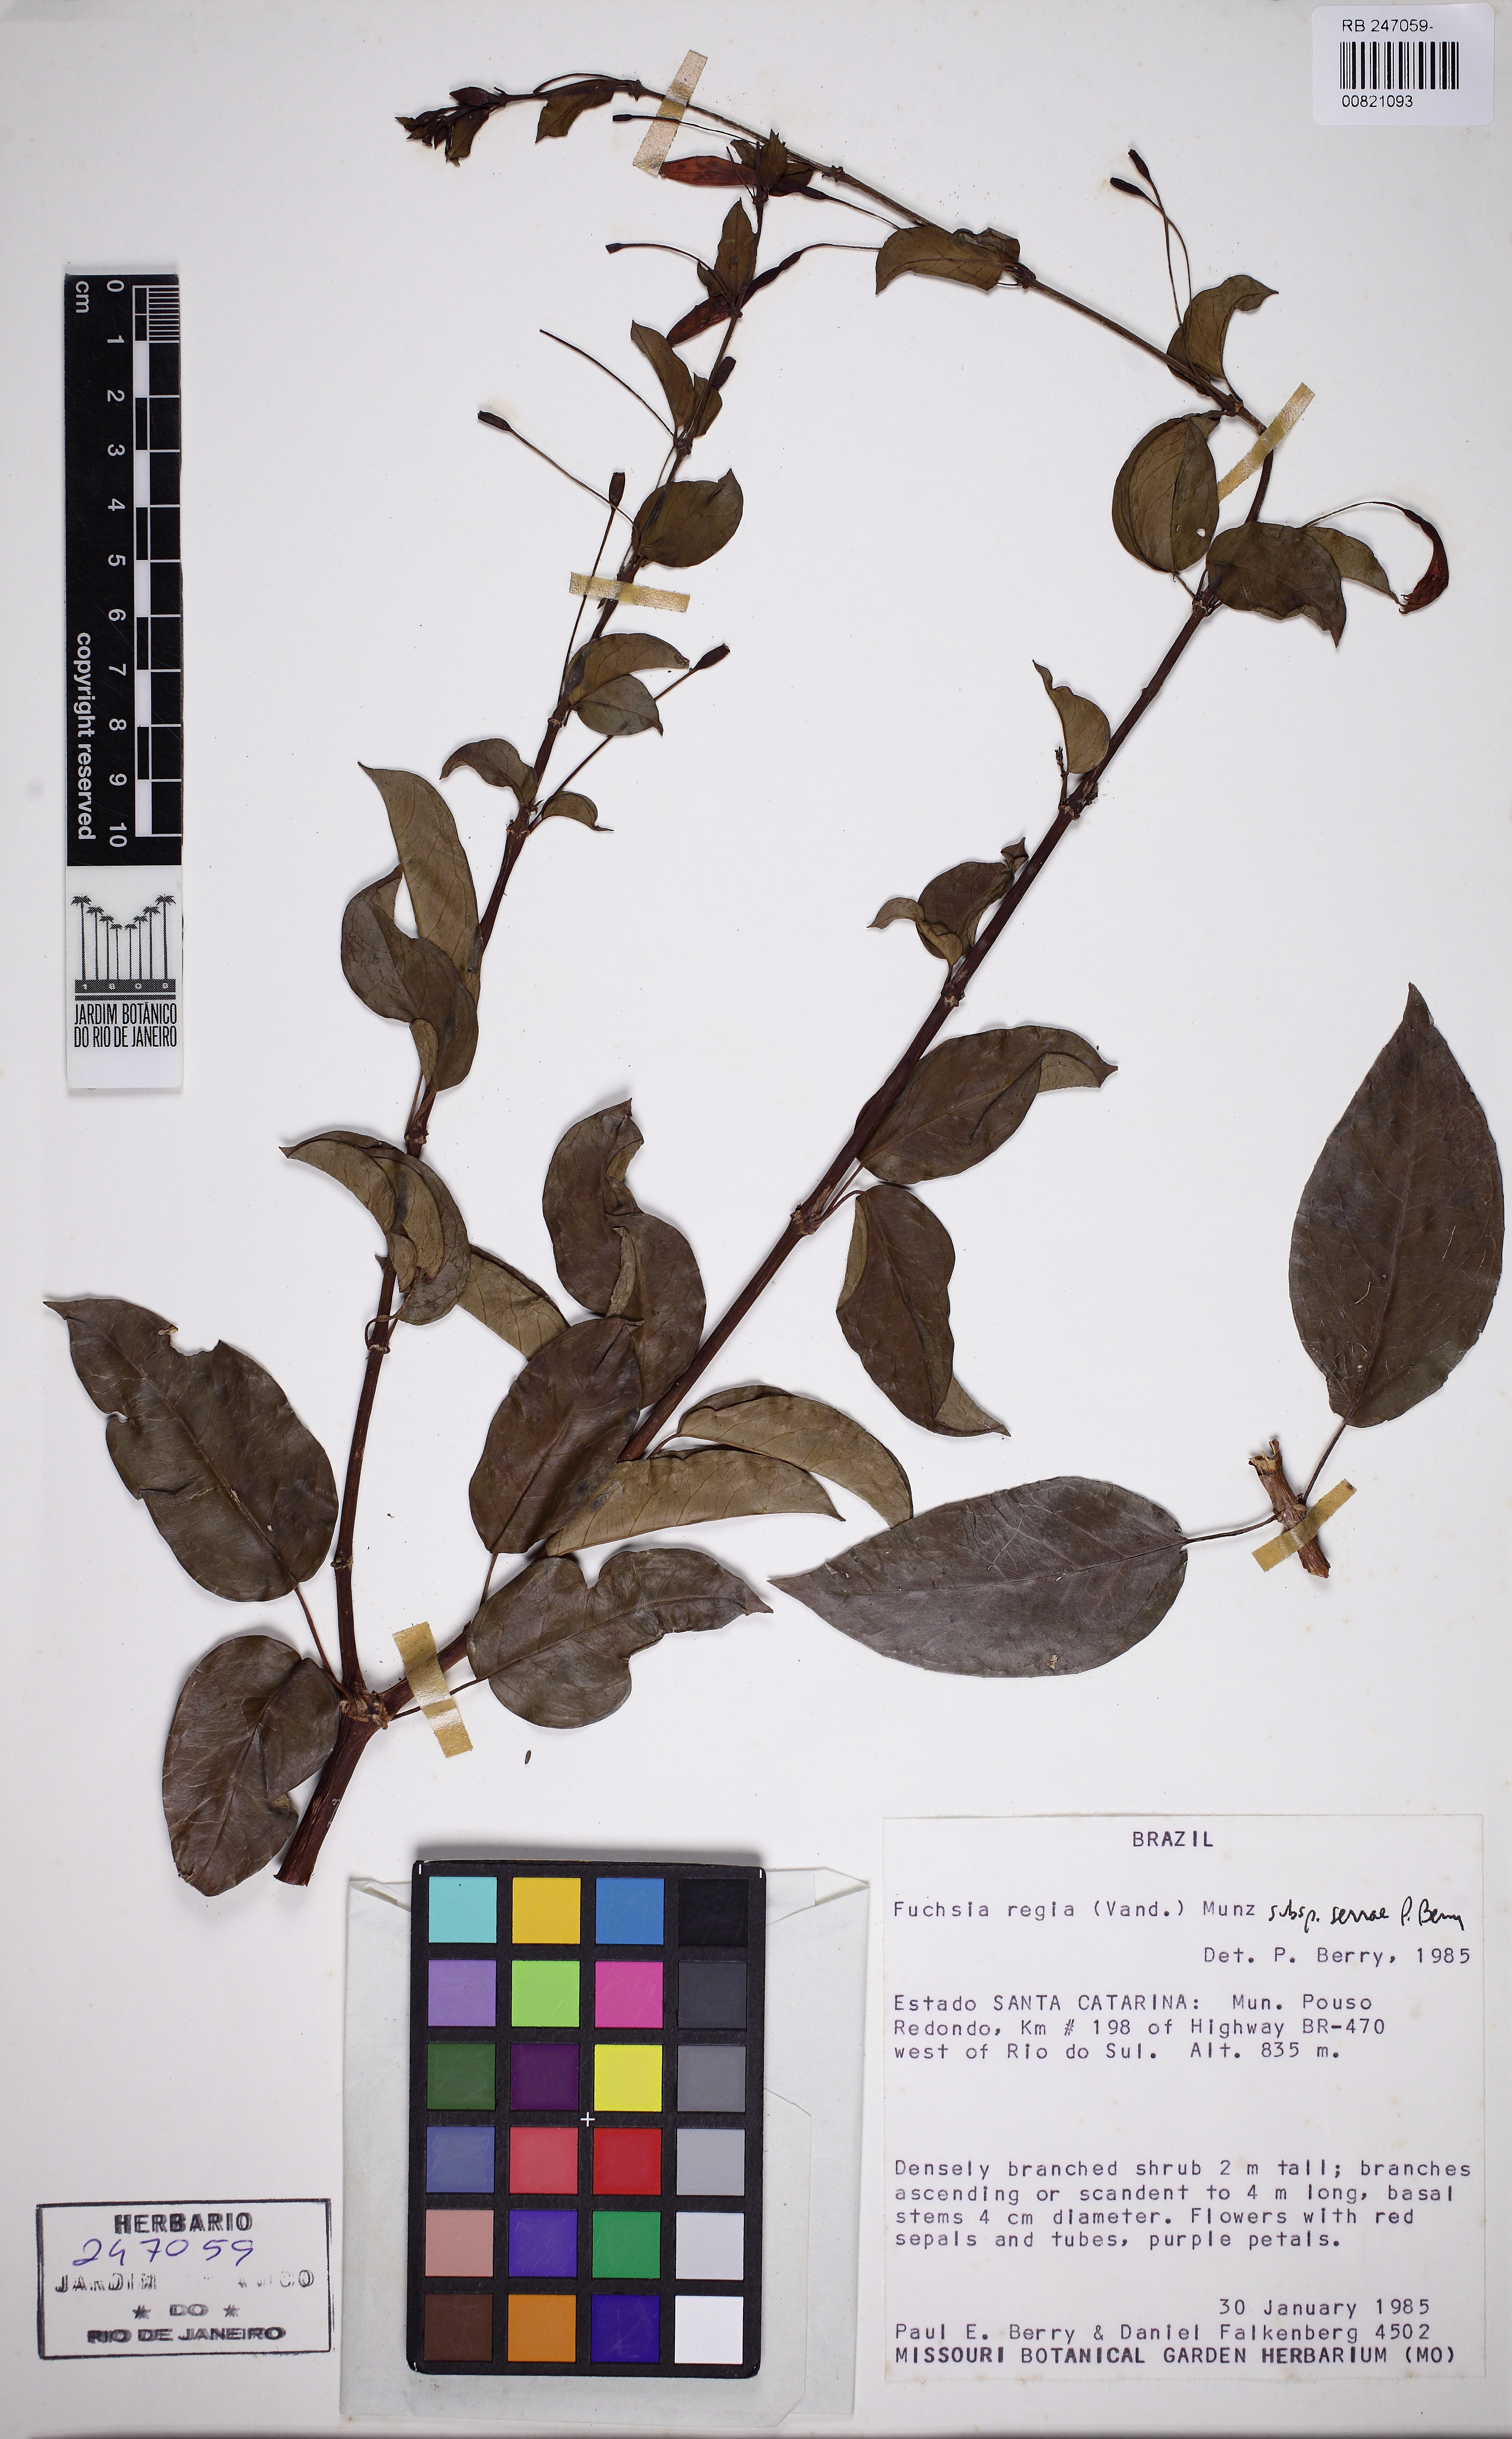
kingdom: Plantae
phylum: Tracheophyta
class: Magnoliopsida
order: Myrtales
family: Onagraceae
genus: Fuchsia
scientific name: Fuchsia regia
